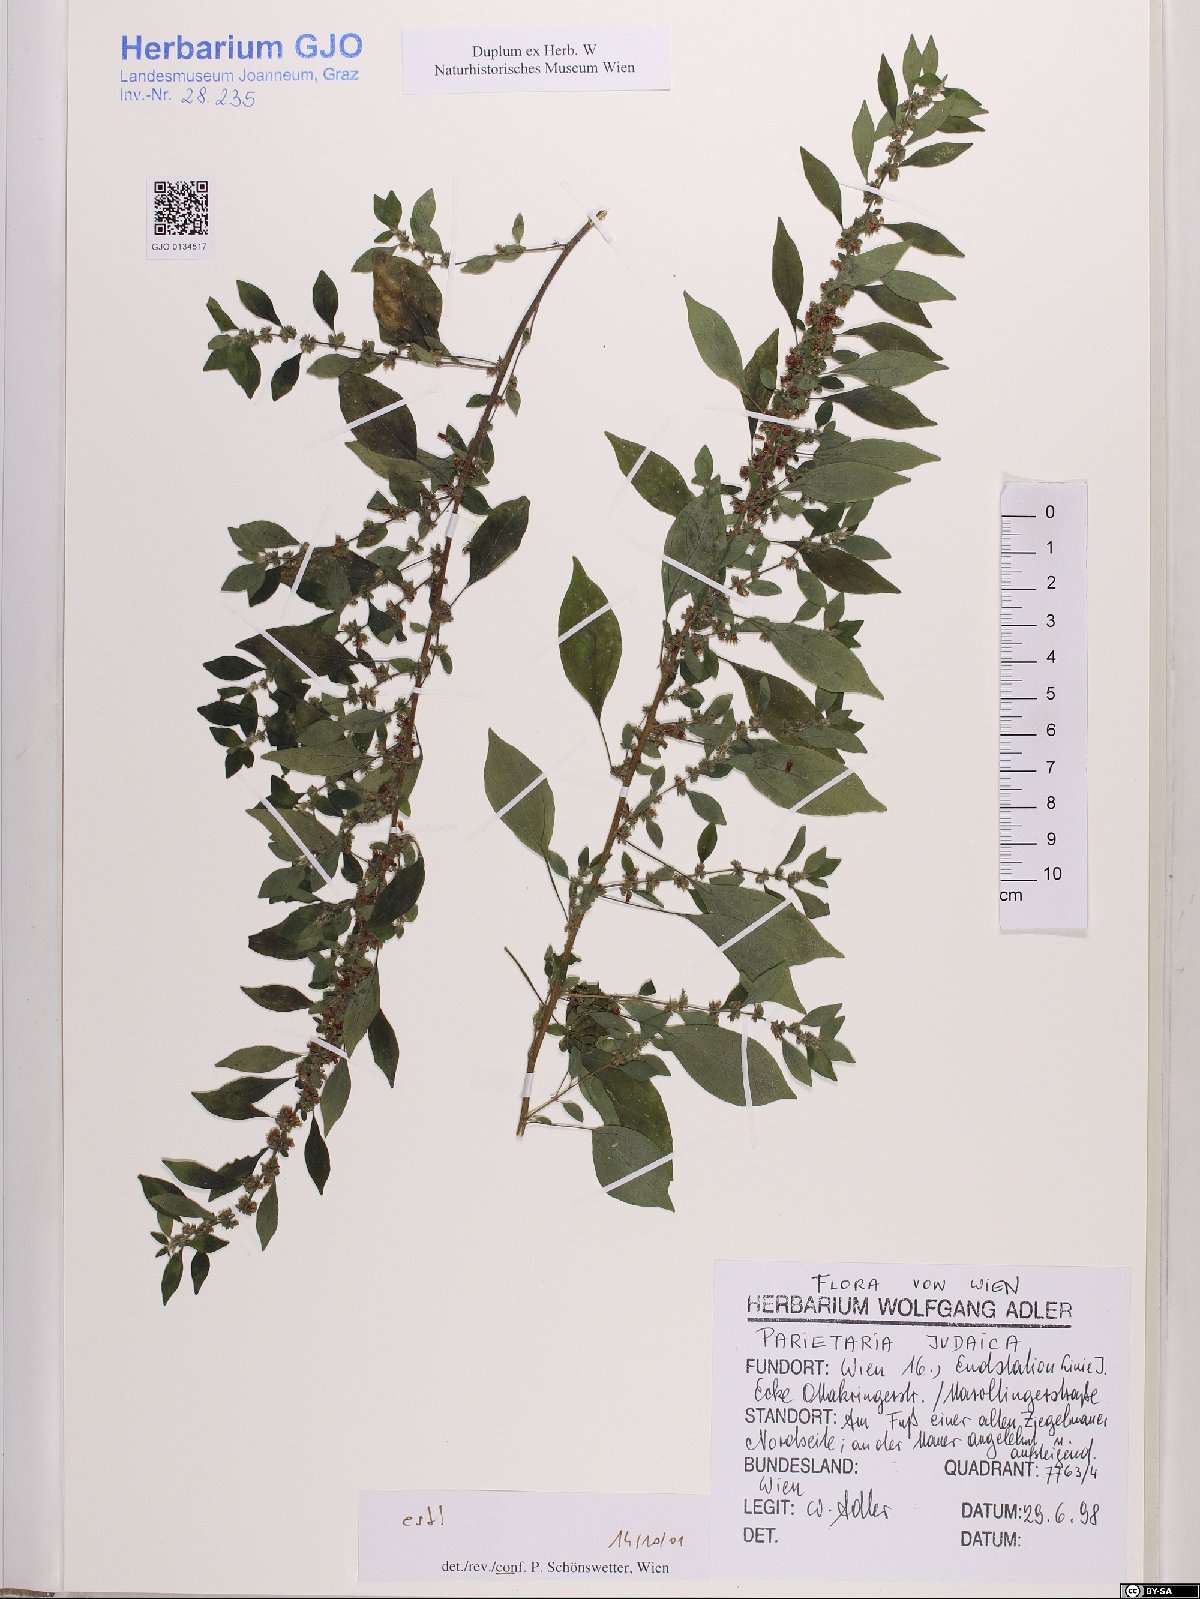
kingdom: Plantae
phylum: Tracheophyta
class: Magnoliopsida
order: Rosales
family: Urticaceae
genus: Parietaria
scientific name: Parietaria judaica
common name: Pellitory-of-the-wall
